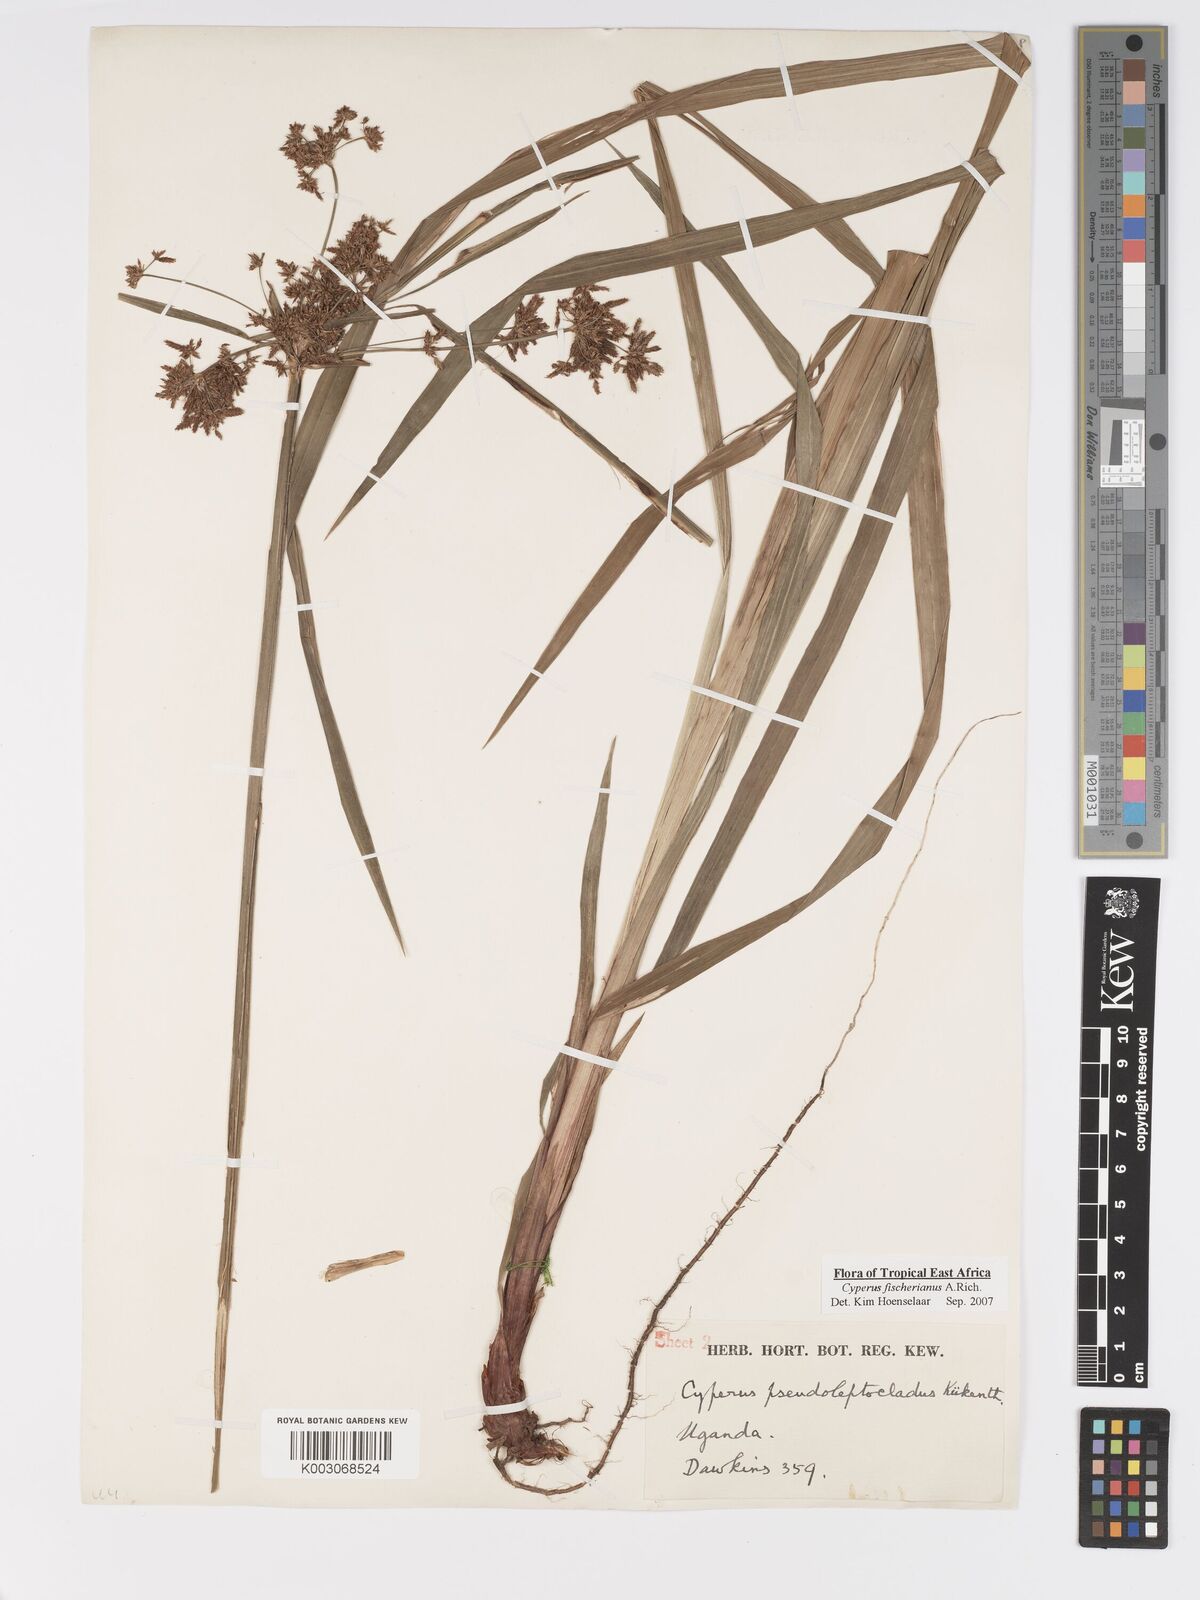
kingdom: Plantae
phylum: Tracheophyta
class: Liliopsida
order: Poales
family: Cyperaceae
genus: Cyperus
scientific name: Cyperus fischerianus
